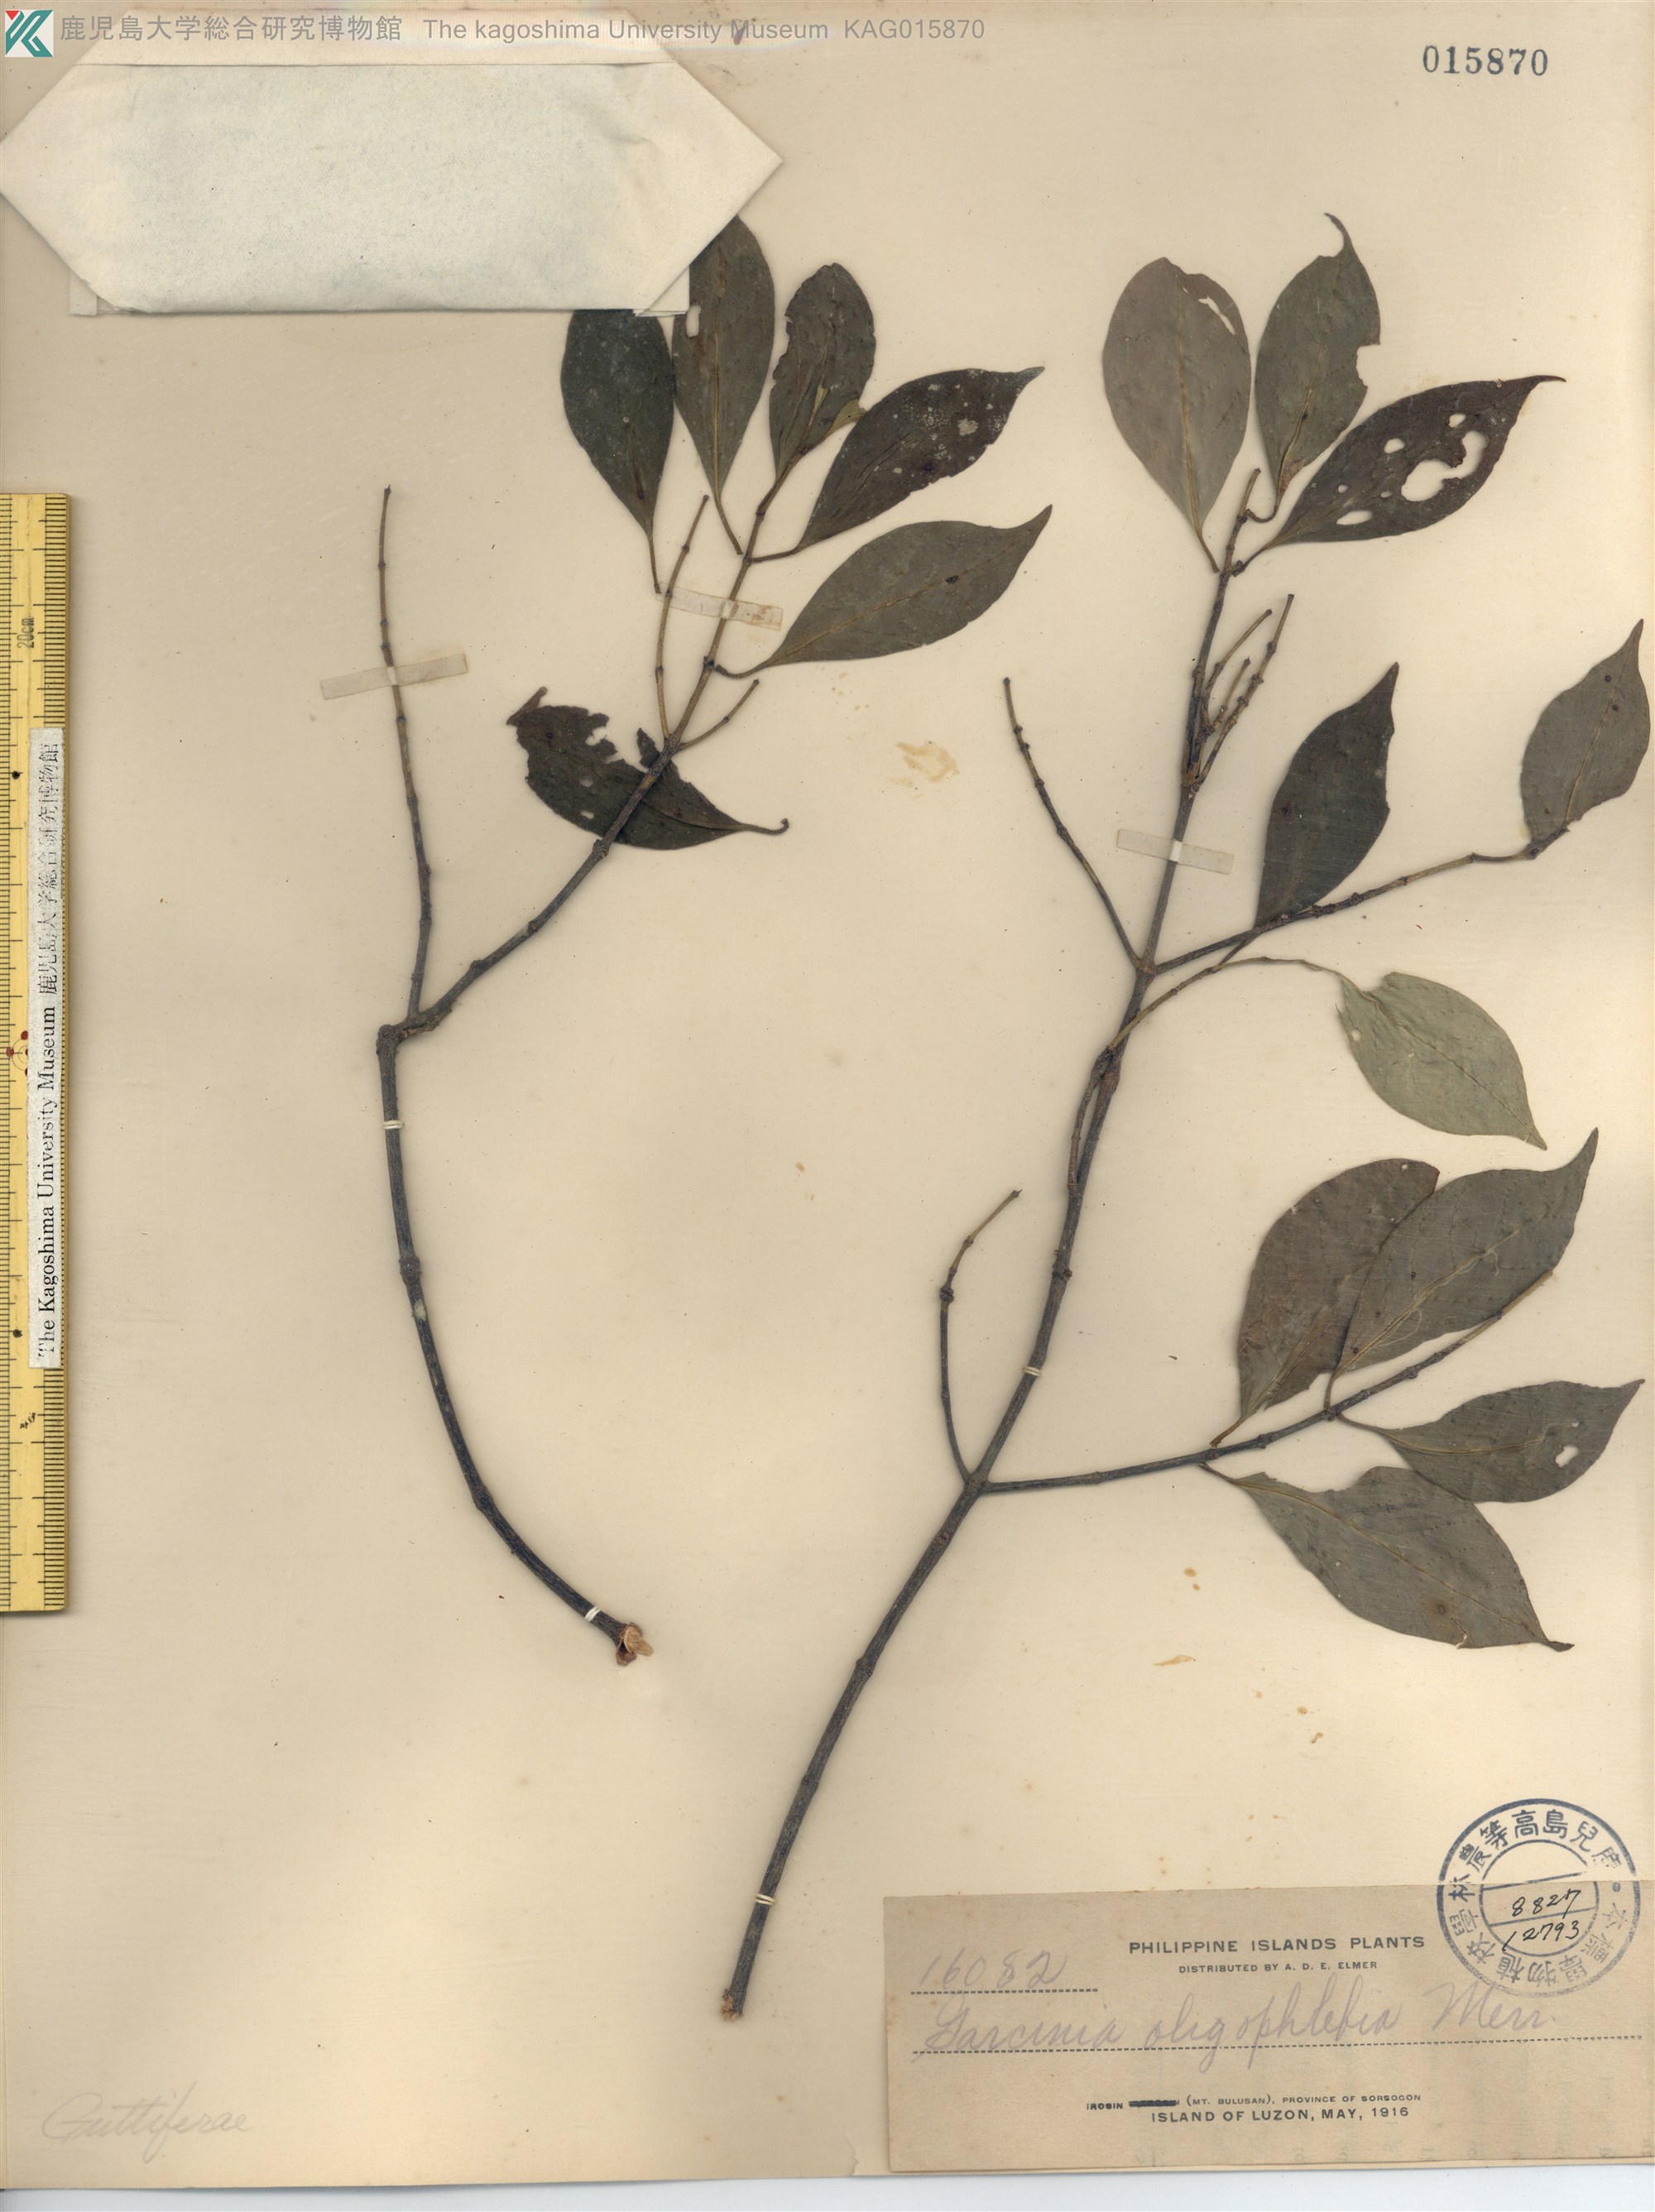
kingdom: Plantae
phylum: Tracheophyta
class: Magnoliopsida
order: Malpighiales
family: Clusiaceae
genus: Garcinia
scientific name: Garcinia rubra
